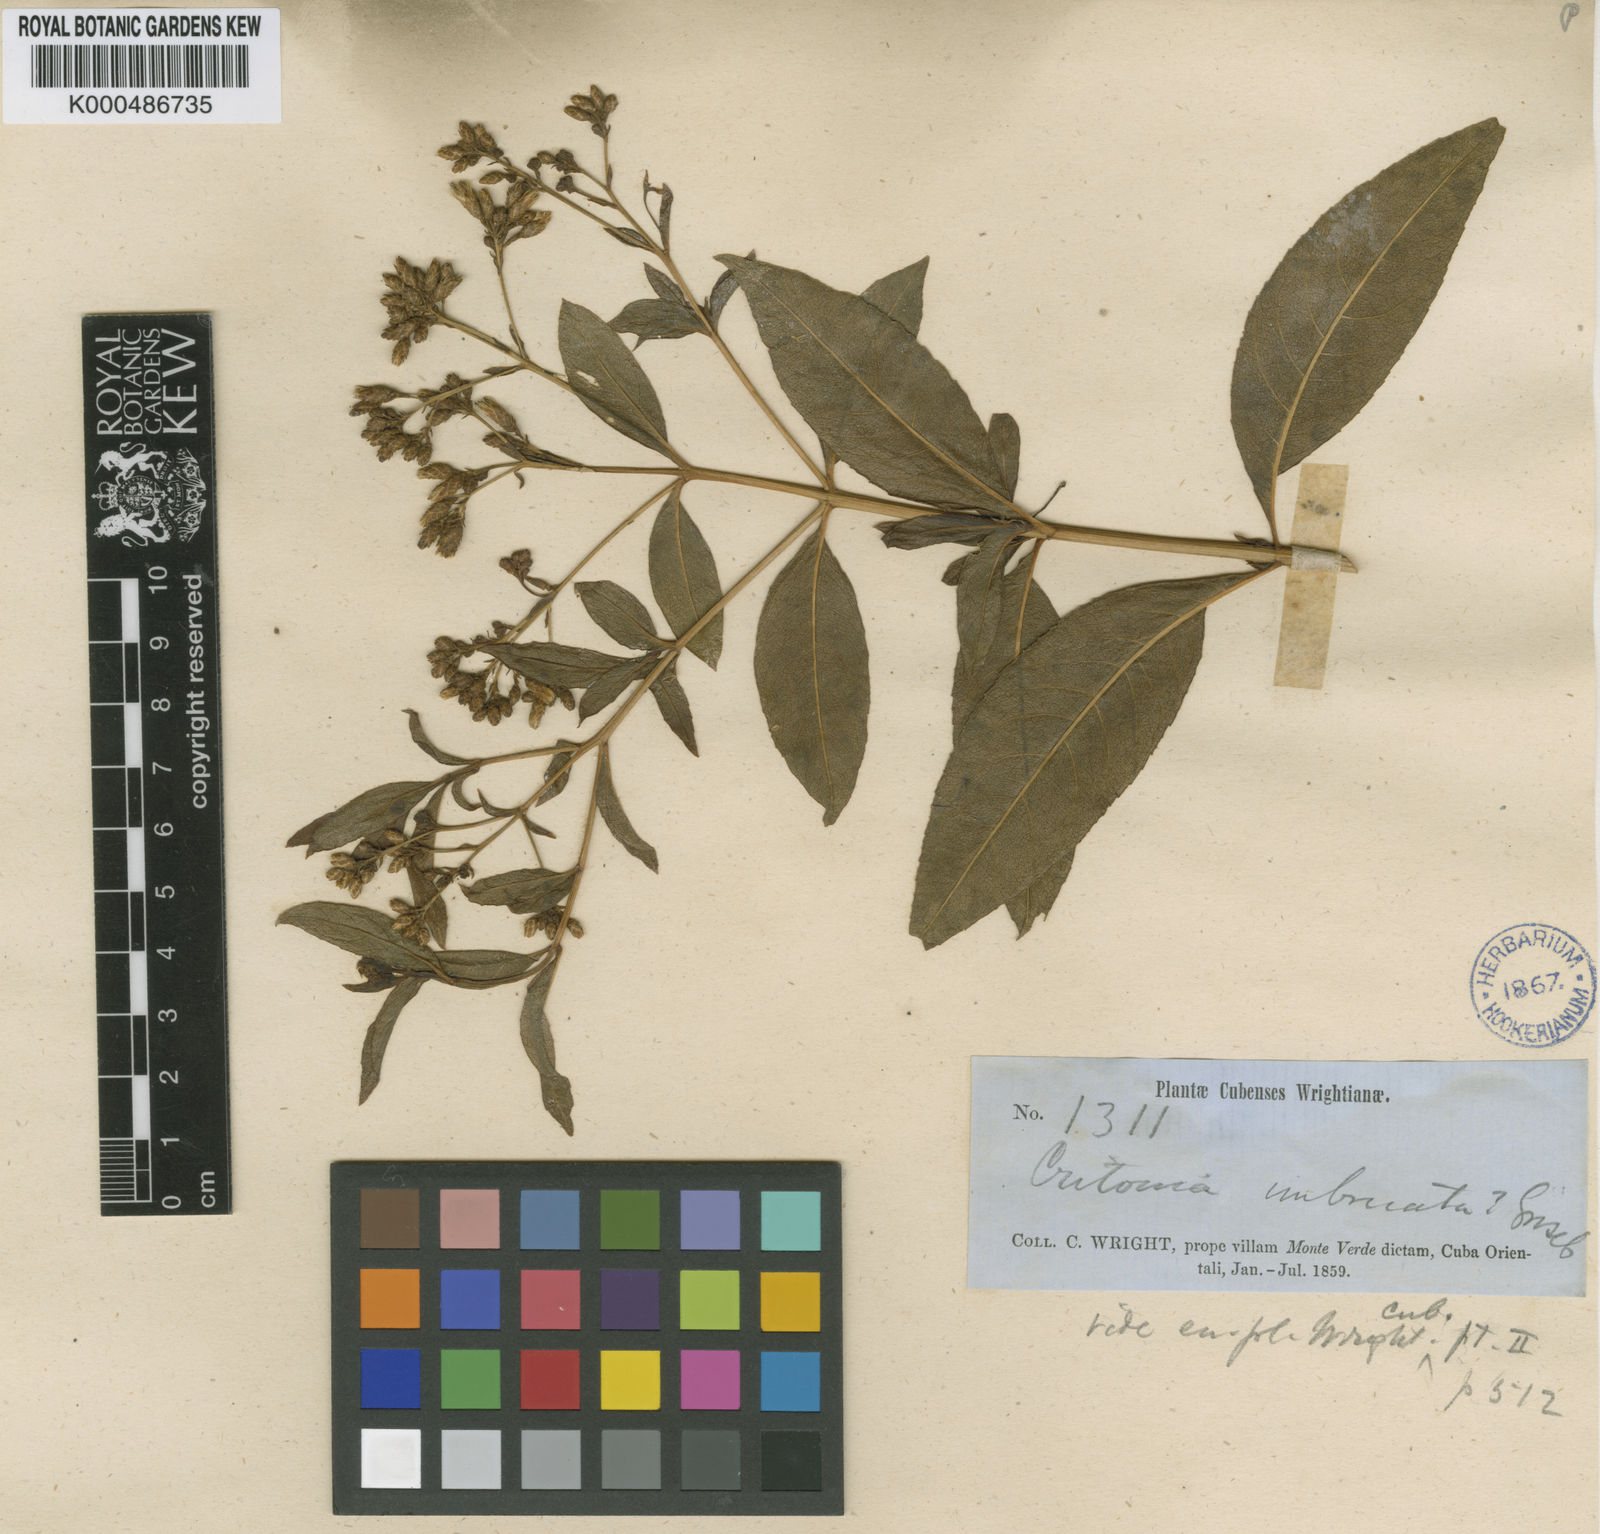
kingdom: Plantae
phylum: Tracheophyta
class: Magnoliopsida
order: Asterales
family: Asteraceae
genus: Critonia
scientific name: Critonia imbricata
